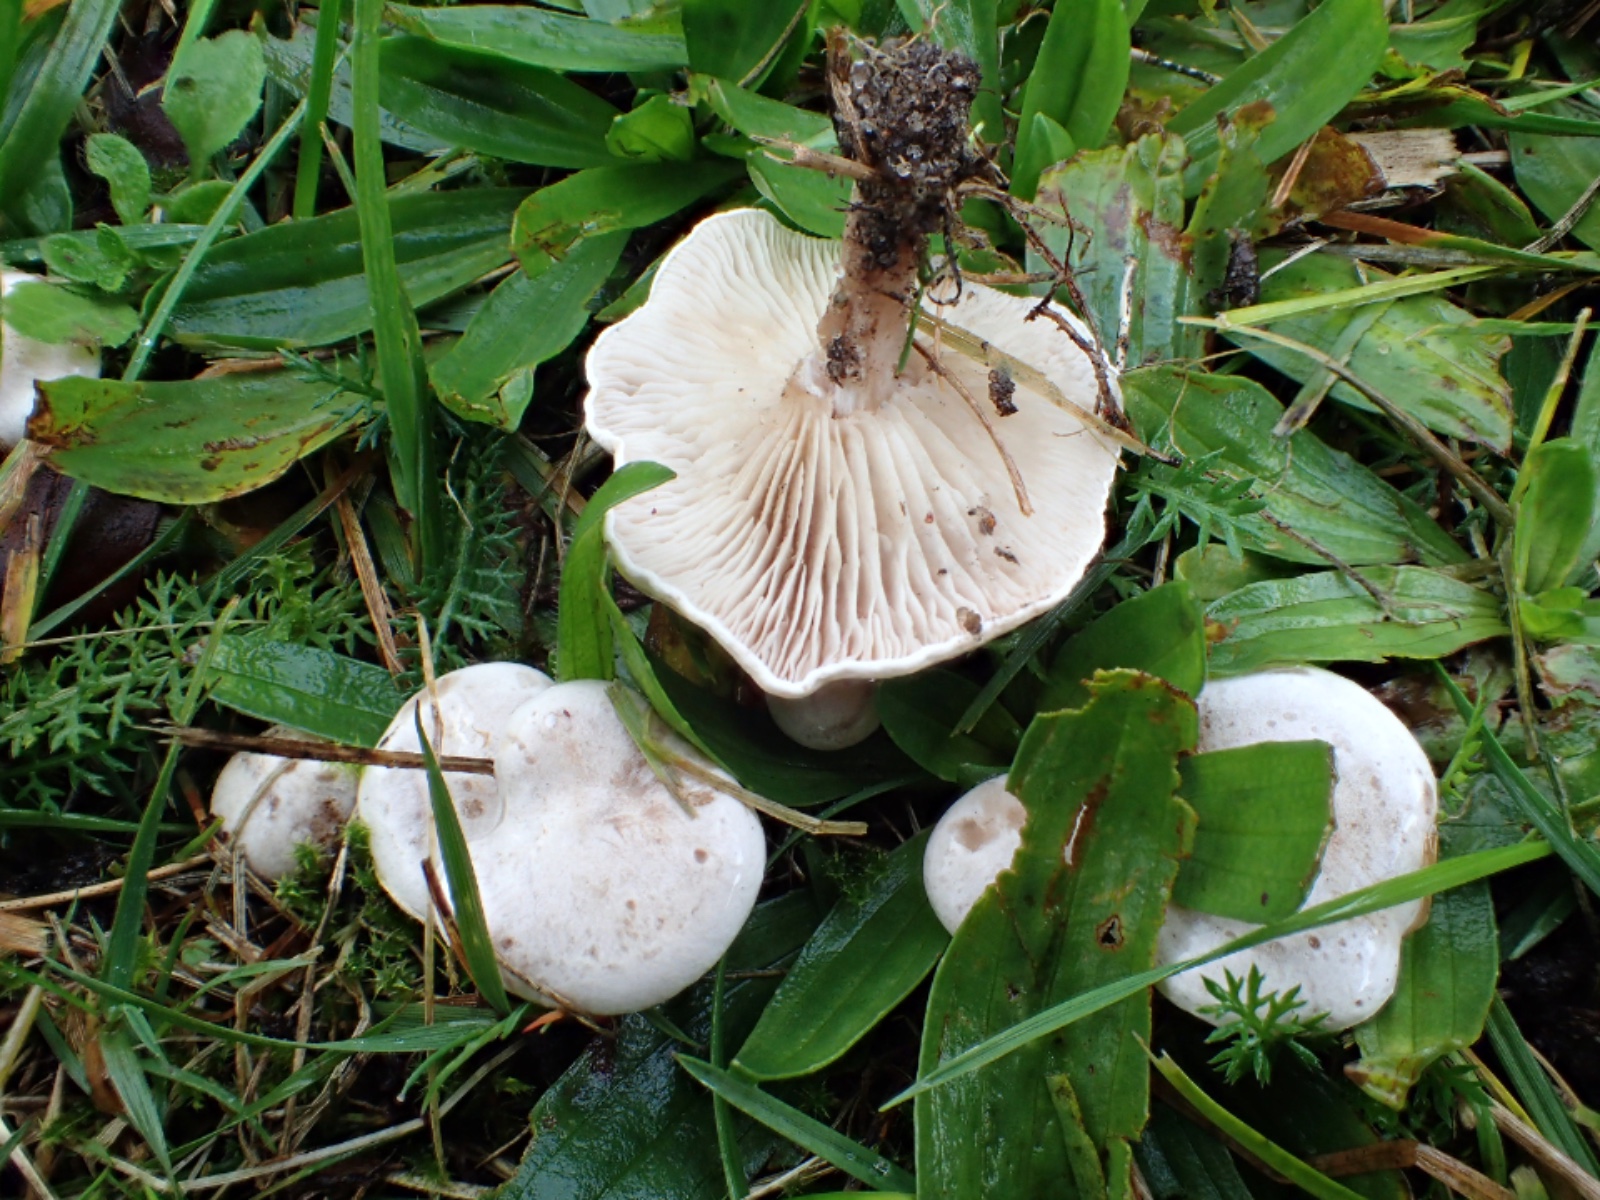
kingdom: Fungi
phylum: Basidiomycota
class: Agaricomycetes
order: Agaricales
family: Tricholomataceae
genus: Clitocybe
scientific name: Clitocybe rivulosa
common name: eng-tragthat
